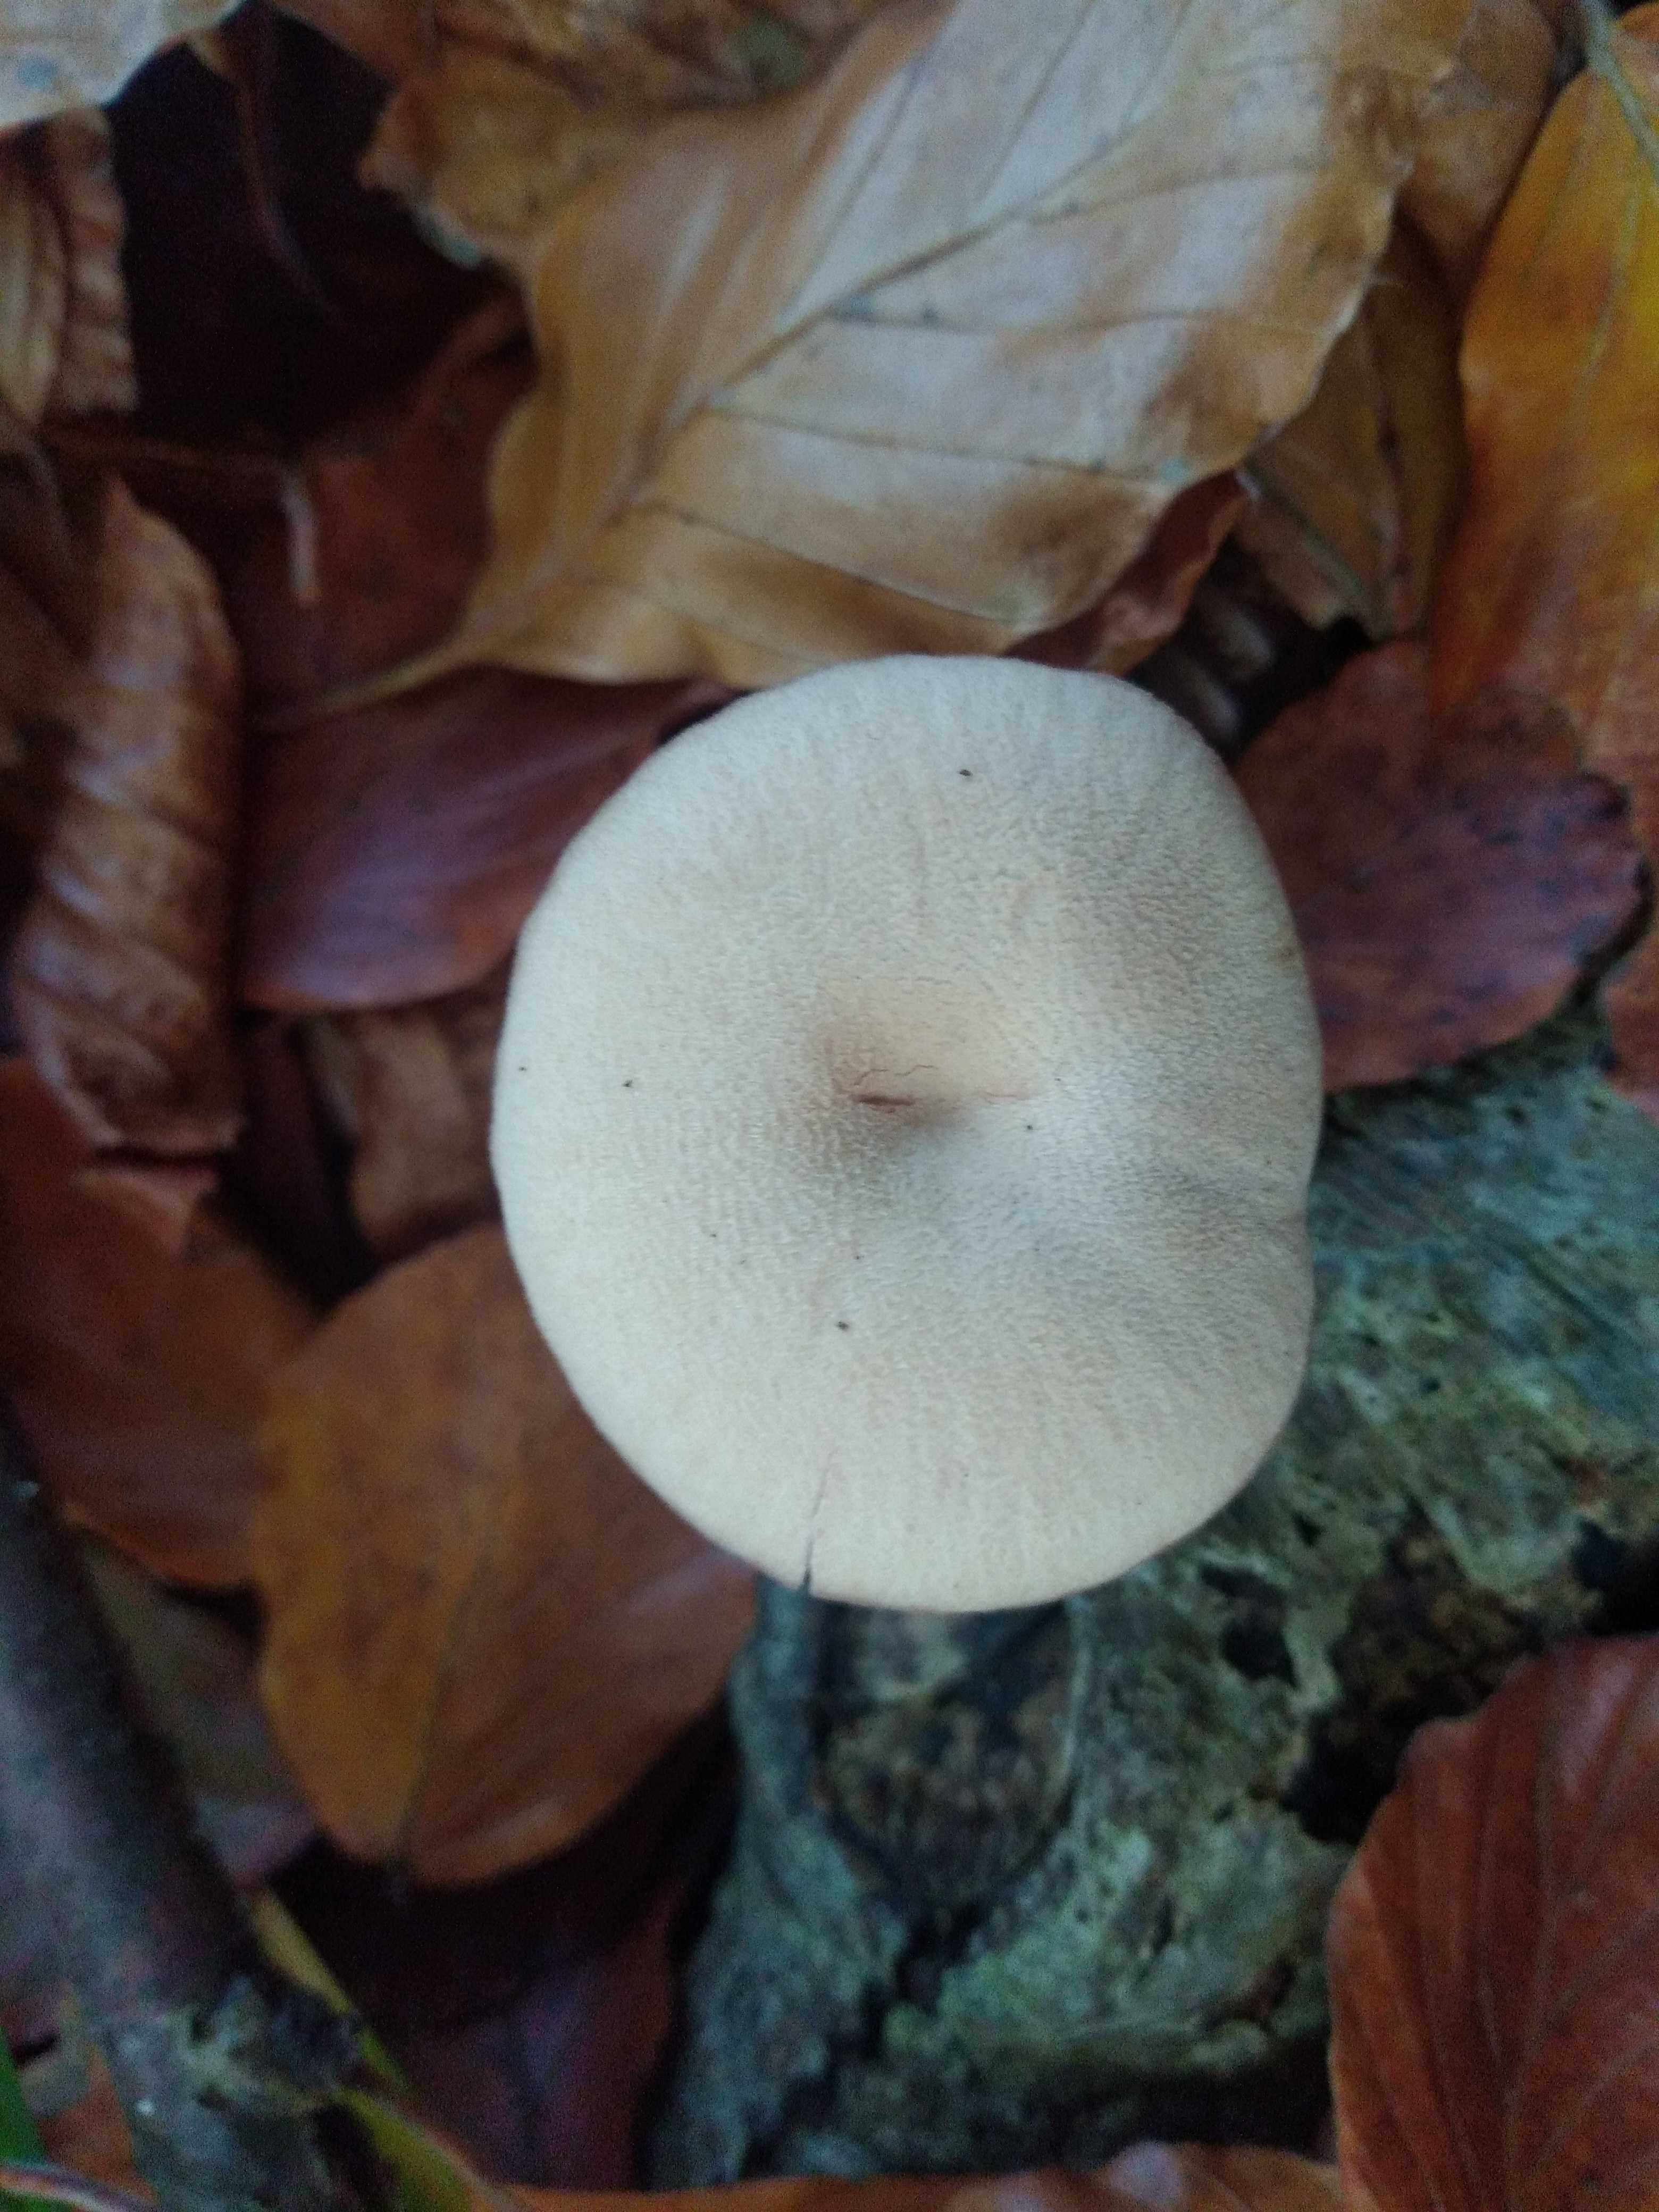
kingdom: Fungi
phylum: Basidiomycota
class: Agaricomycetes
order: Agaricales
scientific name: Agaricales
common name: champignonordenen
